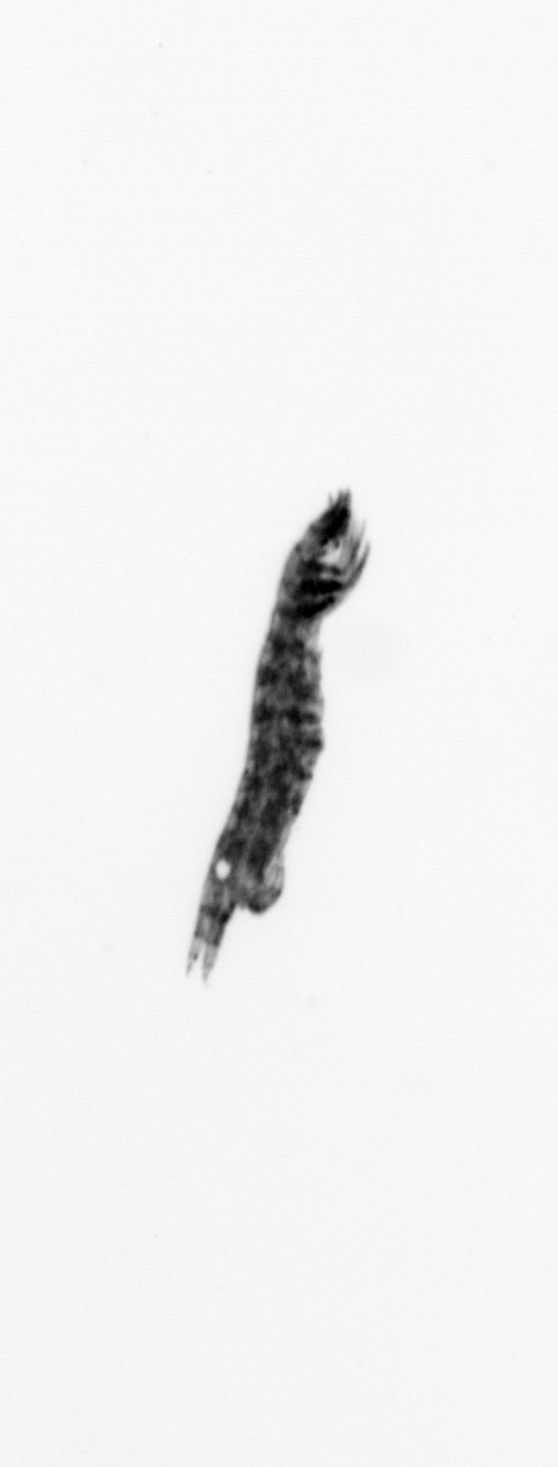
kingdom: Animalia
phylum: Arthropoda
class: Copepoda
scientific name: Copepoda
